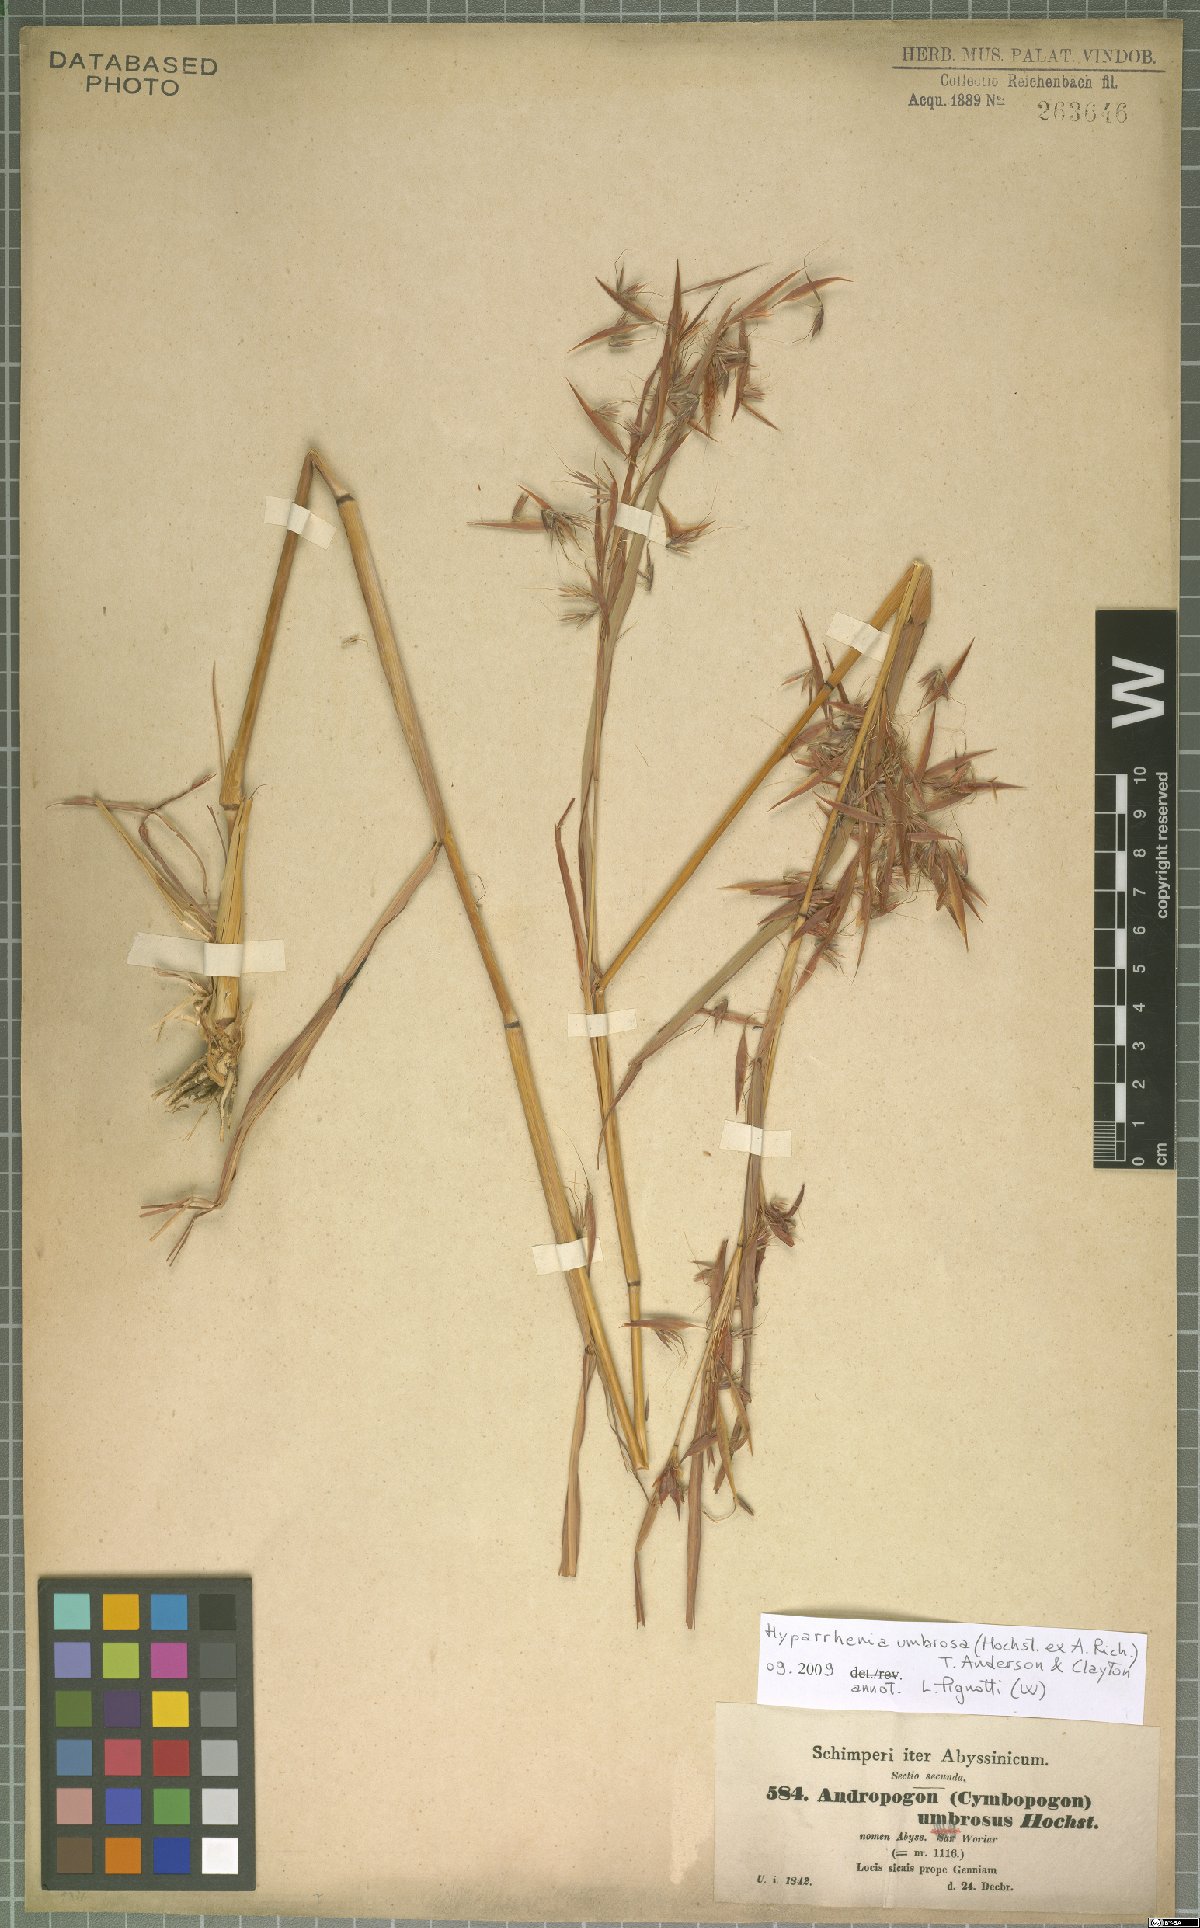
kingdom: Plantae
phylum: Tracheophyta
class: Liliopsida
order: Poales
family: Poaceae
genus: Hyparrhenia
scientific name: Hyparrhenia umbrosa
